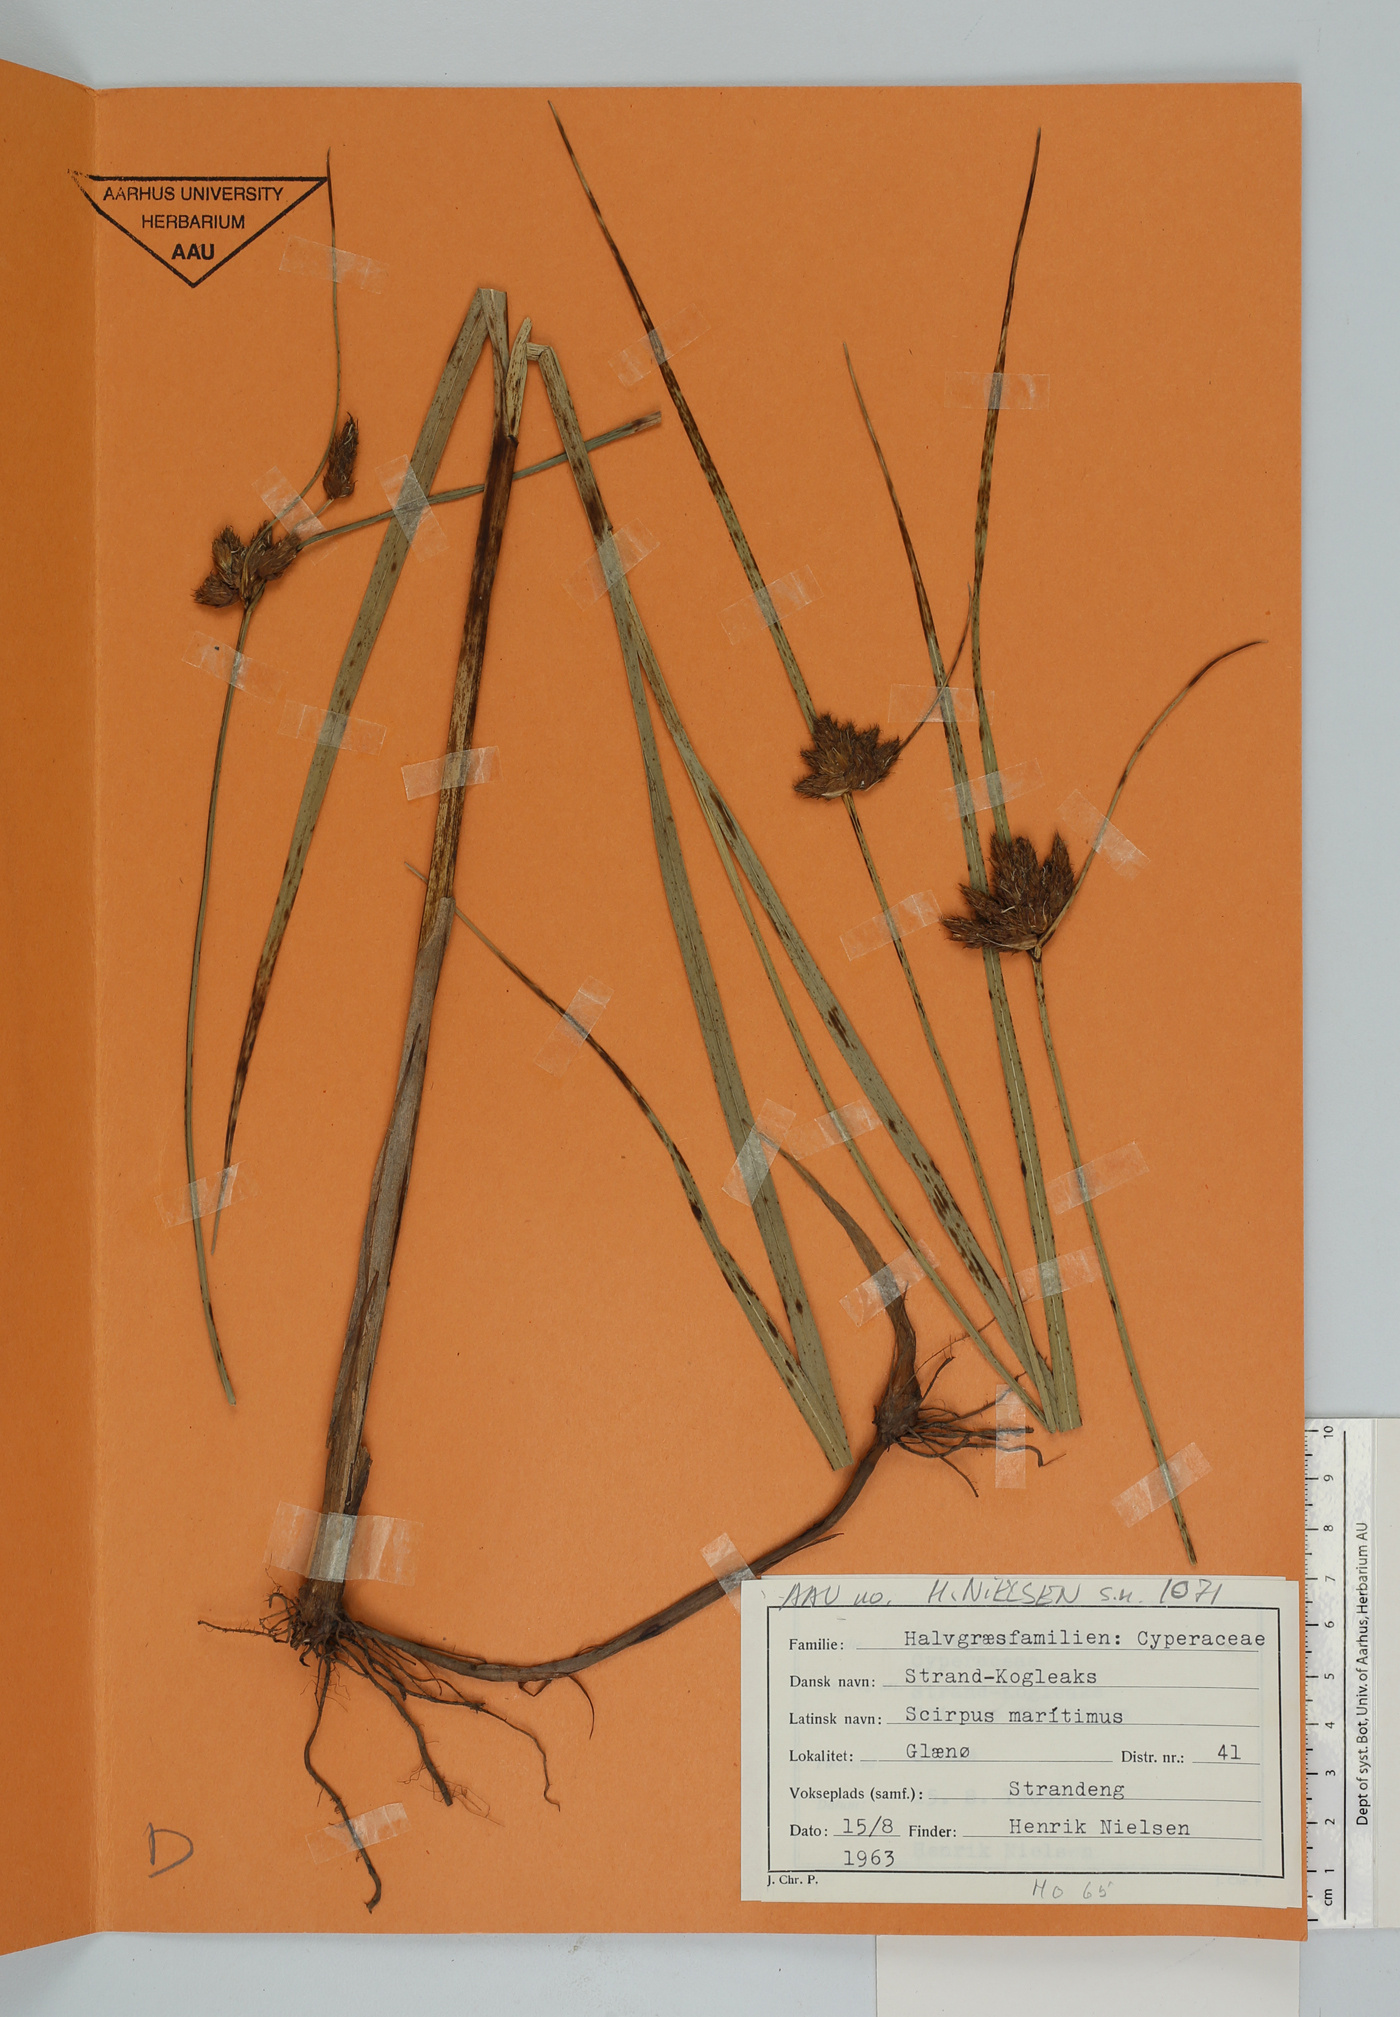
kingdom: Plantae
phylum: Tracheophyta
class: Liliopsida
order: Poales
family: Cyperaceae
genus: Bolboschoenus
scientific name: Bolboschoenus maritimus
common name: Sea club-rush
